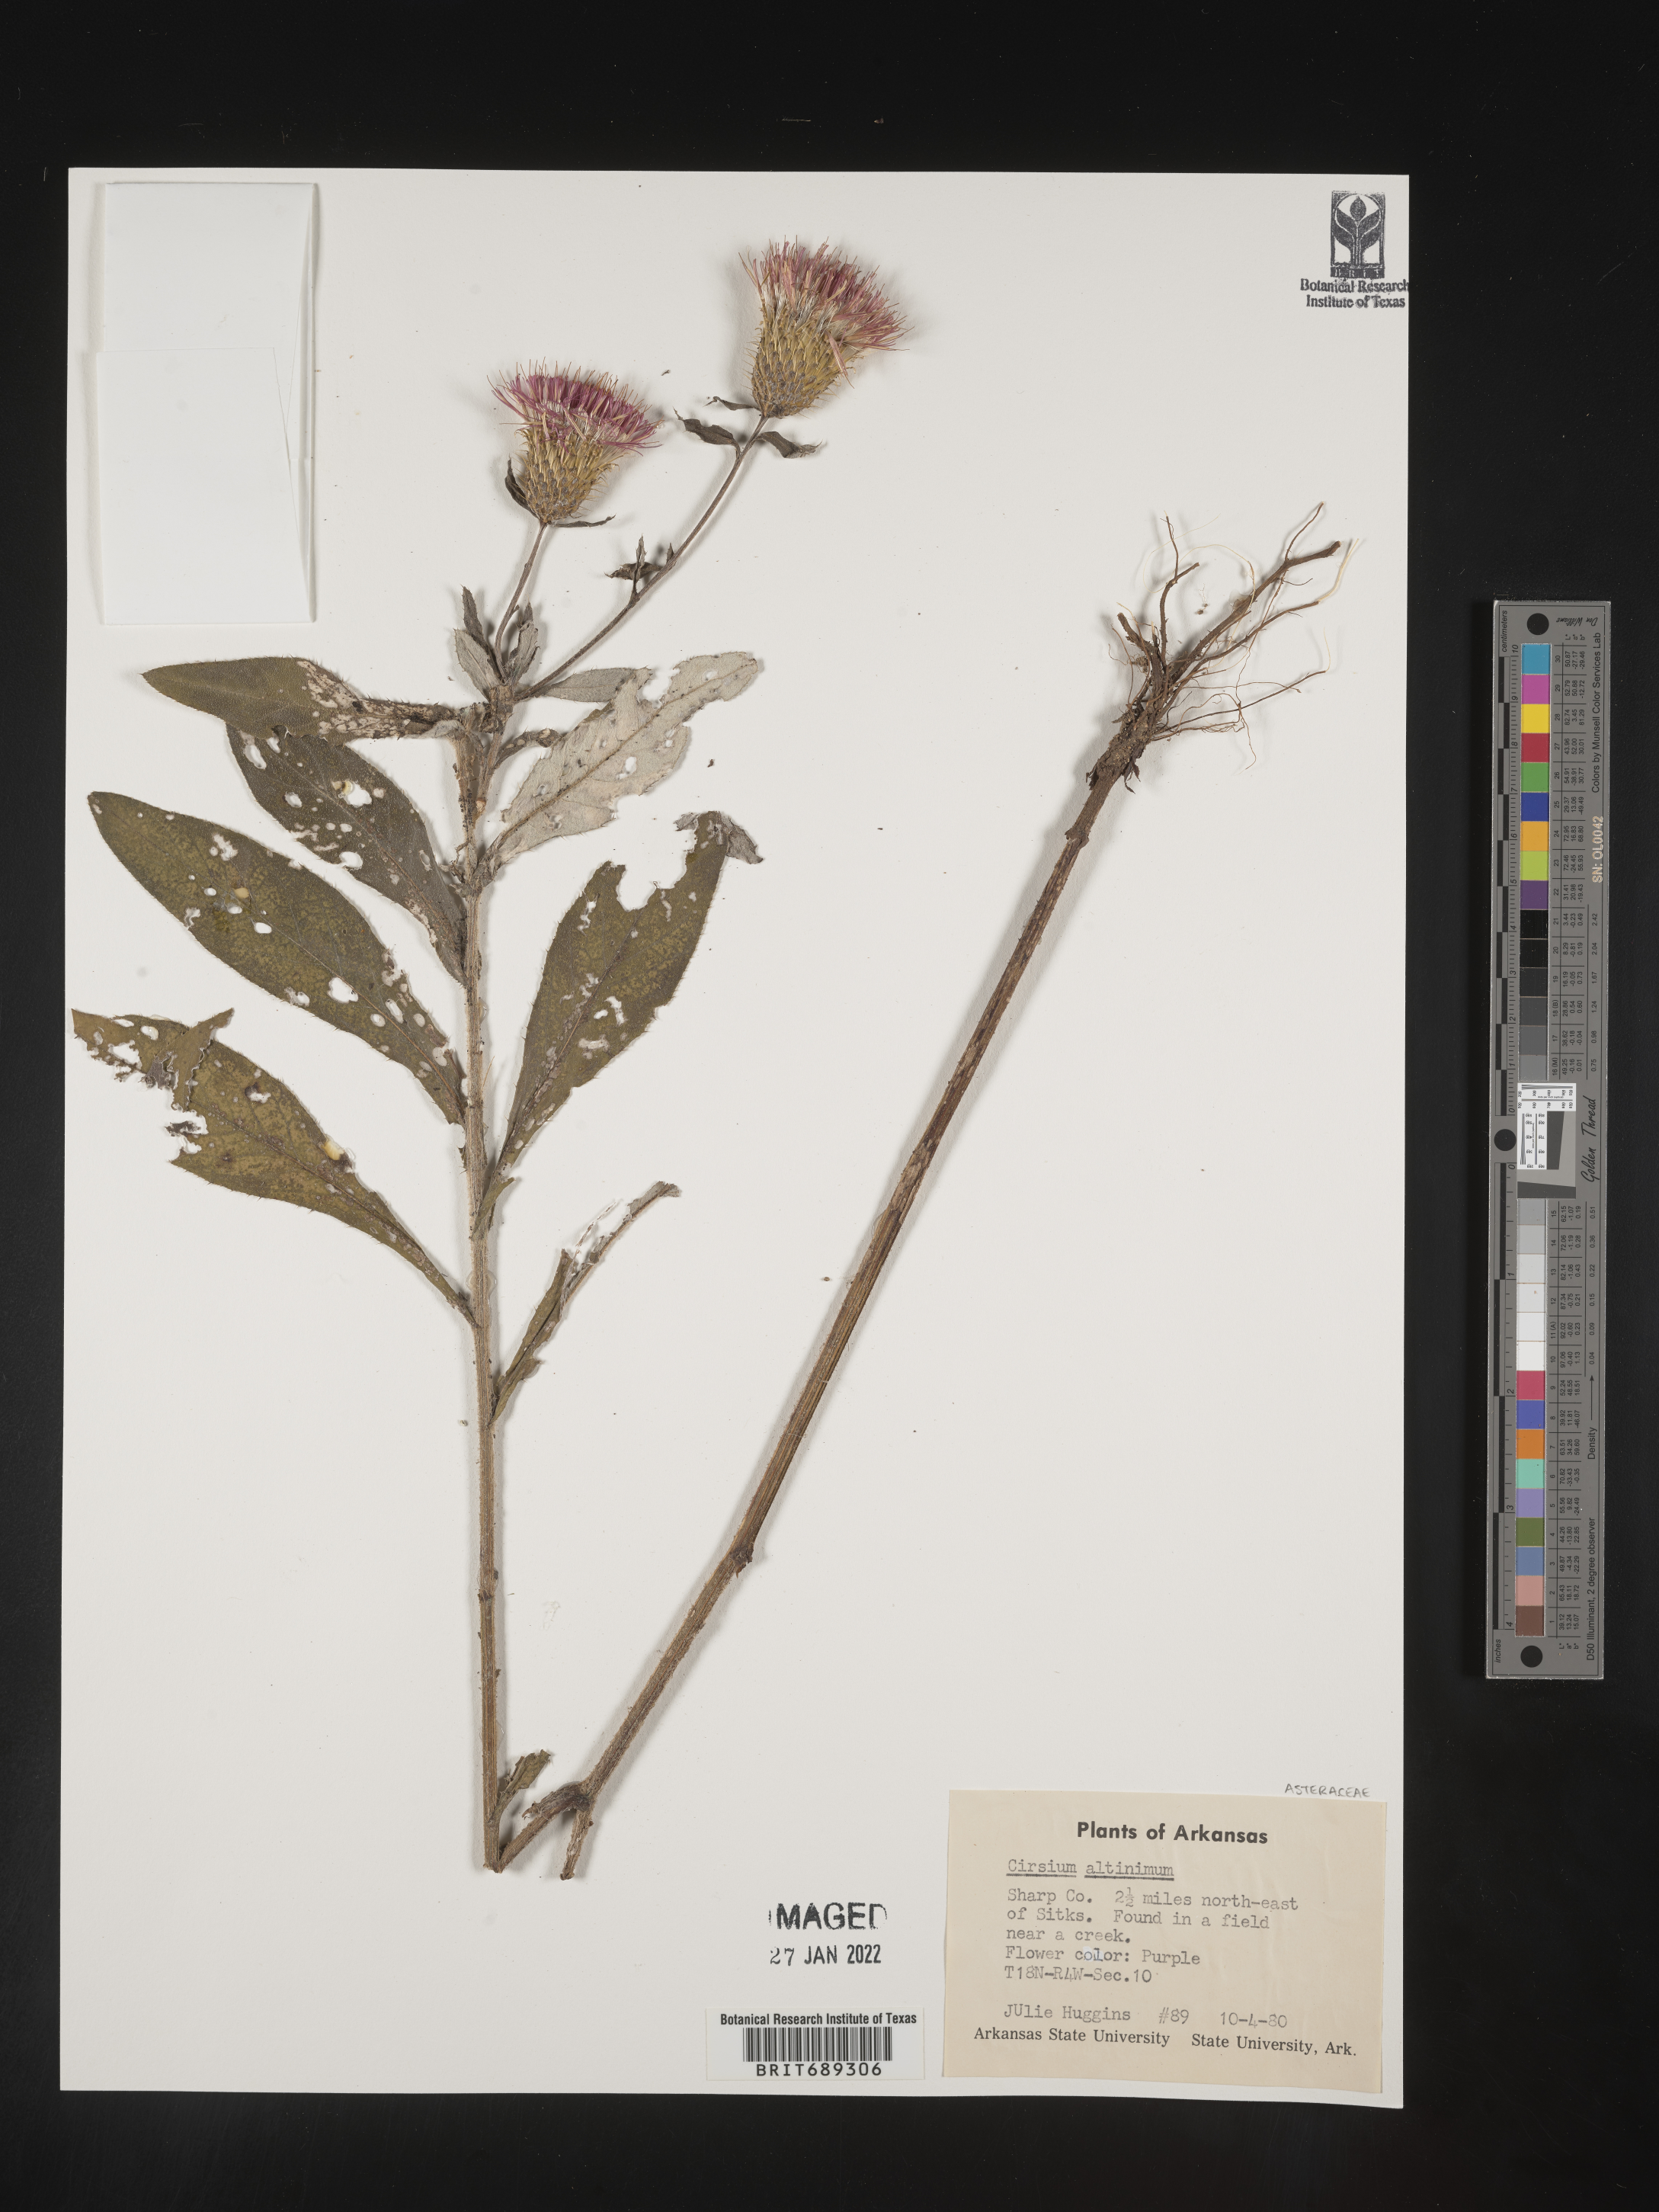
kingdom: Plantae
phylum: Tracheophyta
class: Magnoliopsida
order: Asterales
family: Asteraceae
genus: Cirsium
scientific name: Cirsium
